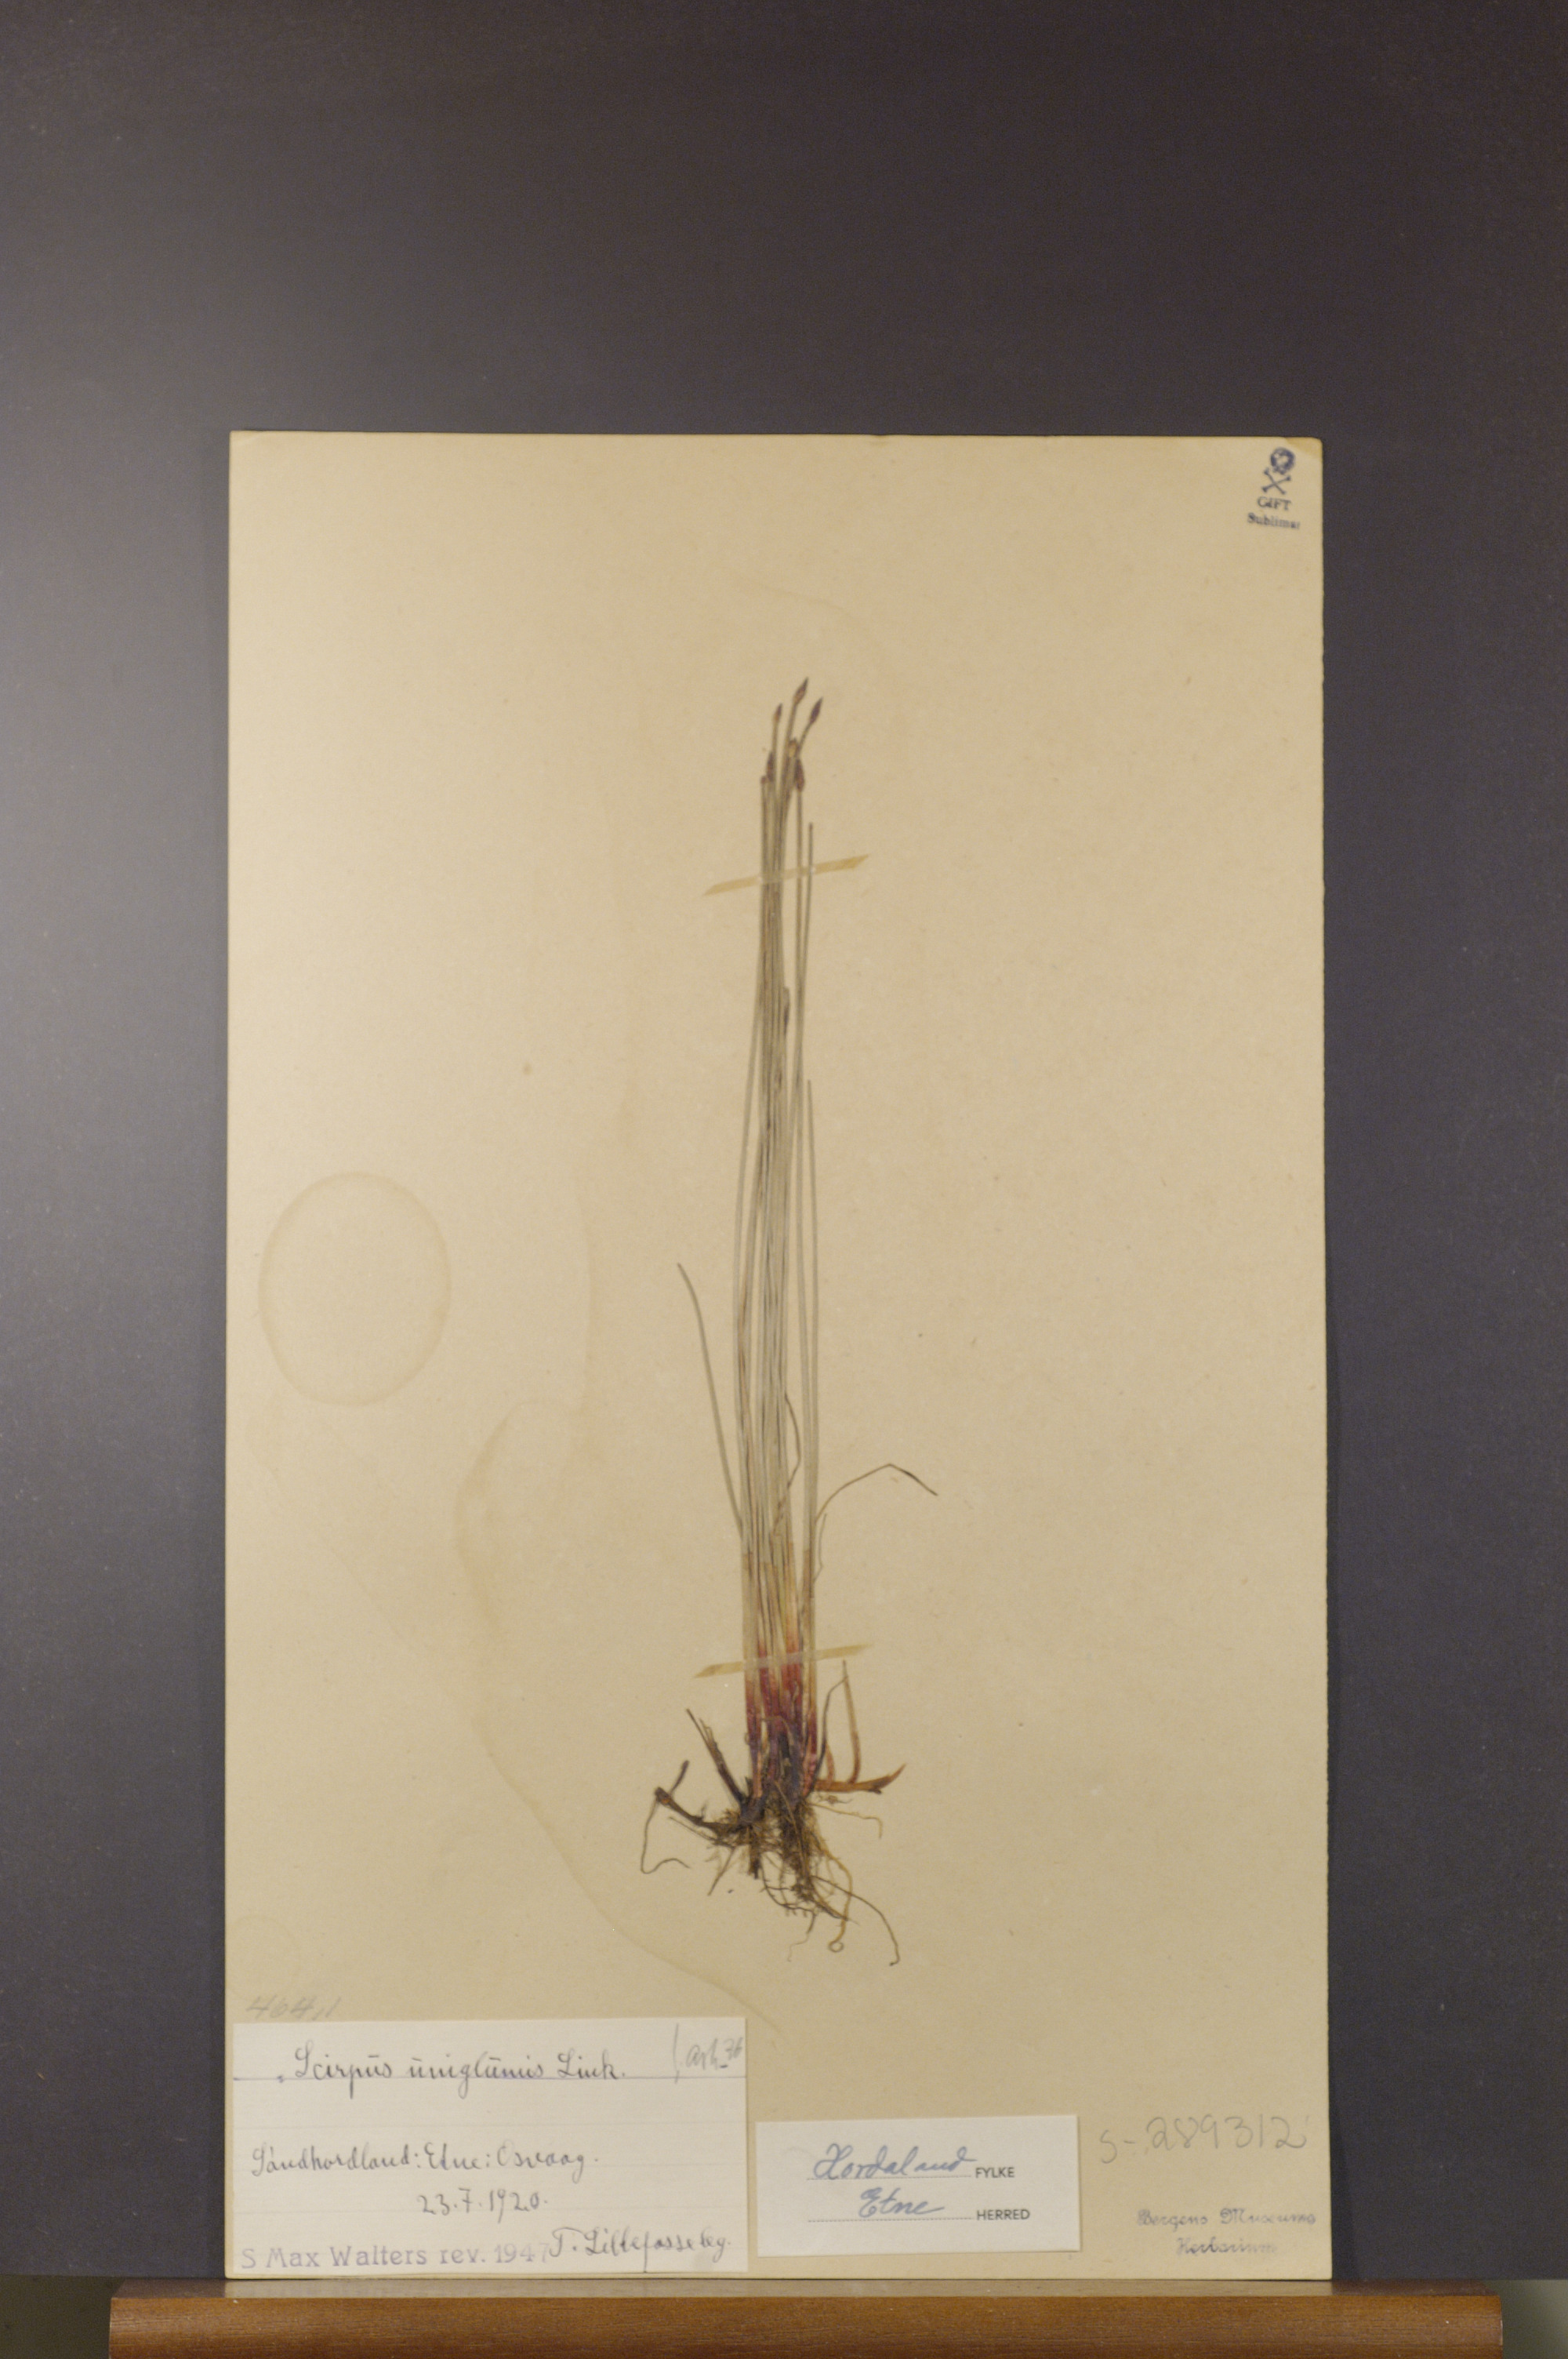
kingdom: Plantae
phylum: Tracheophyta
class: Liliopsida
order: Poales
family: Cyperaceae
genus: Eleocharis
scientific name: Eleocharis uniglumis
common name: Slender spike-rush
